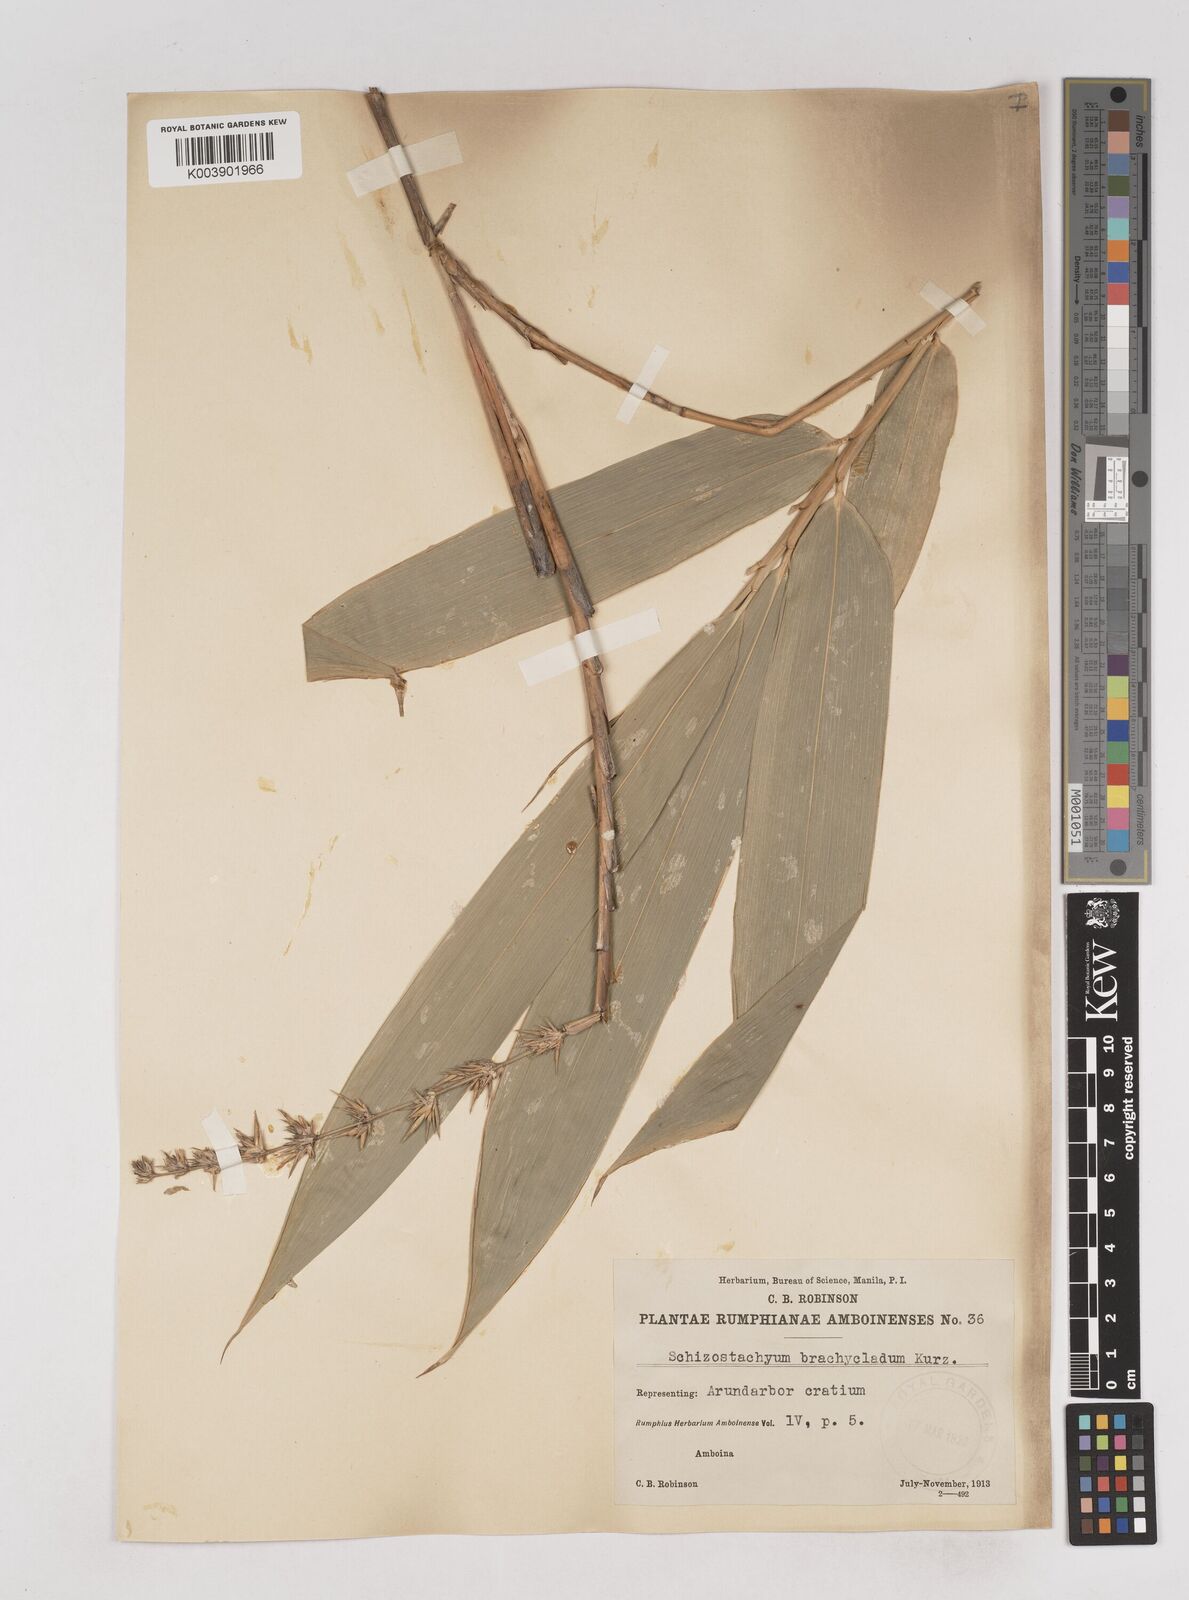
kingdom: Plantae
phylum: Tracheophyta
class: Liliopsida
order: Poales
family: Poaceae
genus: Schizostachyum
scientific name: Schizostachyum brachycladum
